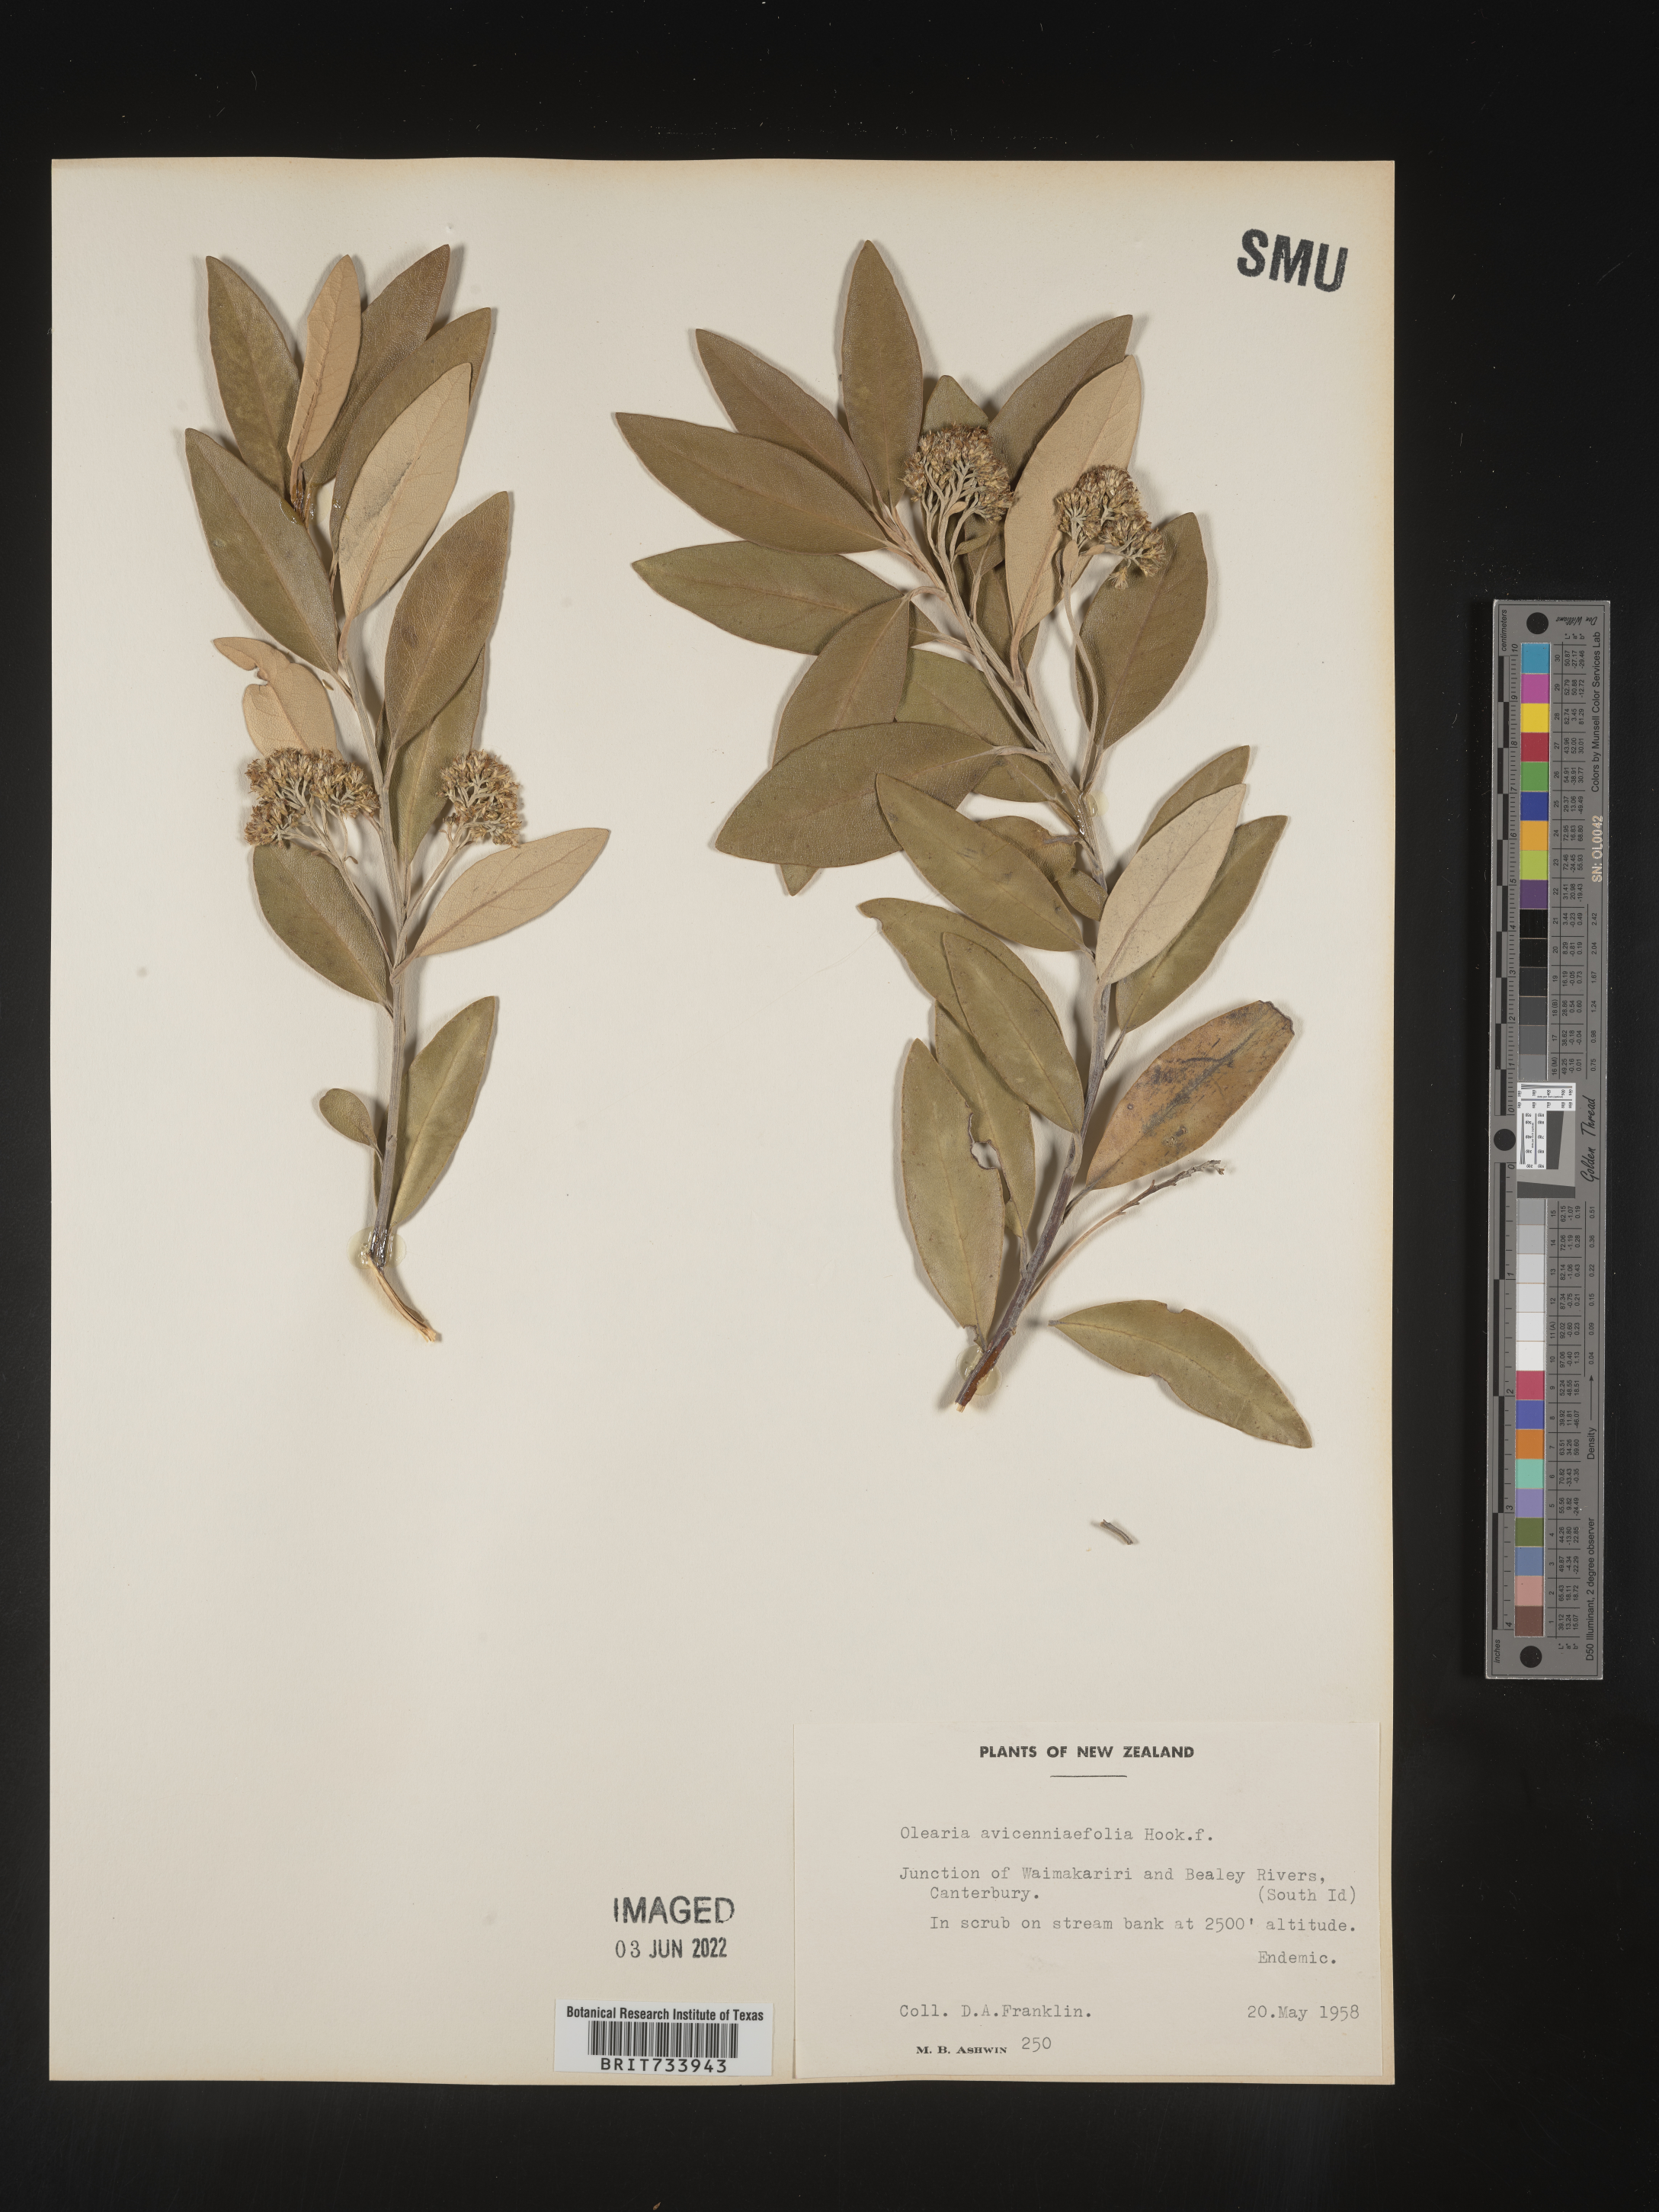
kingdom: Plantae
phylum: Tracheophyta
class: Magnoliopsida
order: Asterales
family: Asteraceae
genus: Olearia
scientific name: Olearia
